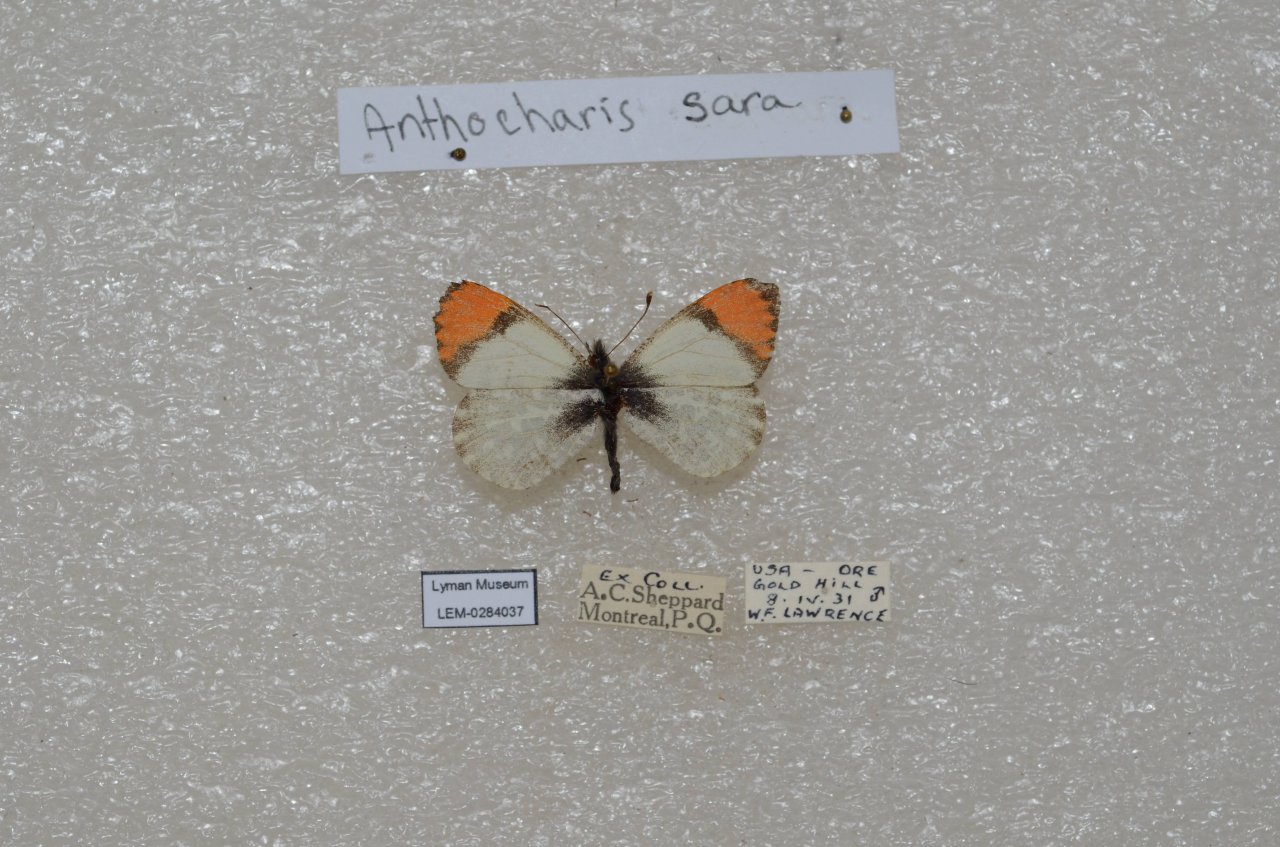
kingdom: Animalia
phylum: Arthropoda
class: Insecta
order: Lepidoptera
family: Pieridae
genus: Anthocharis
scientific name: Anthocharis sara
